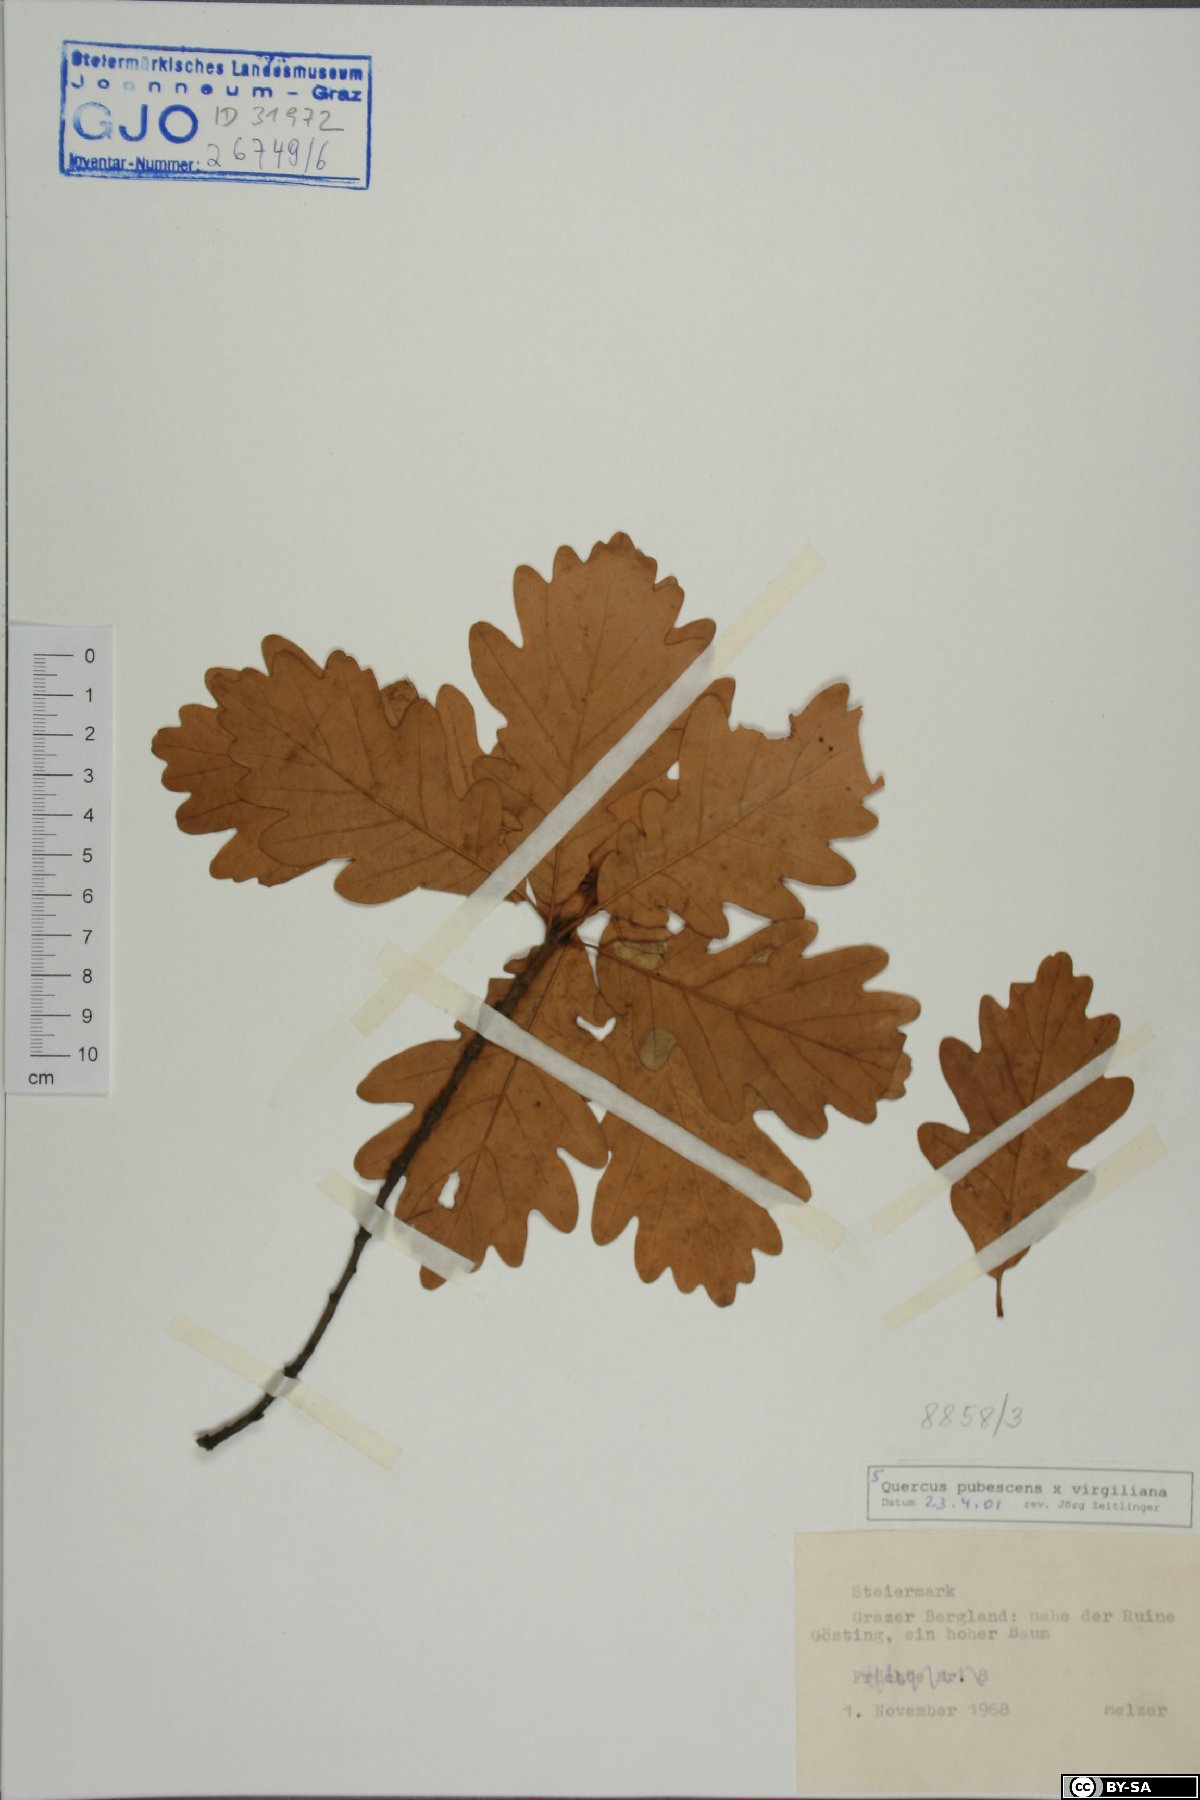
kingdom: Plantae
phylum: Tracheophyta
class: Magnoliopsida
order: Fagales
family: Fagaceae
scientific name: Fagaceae
